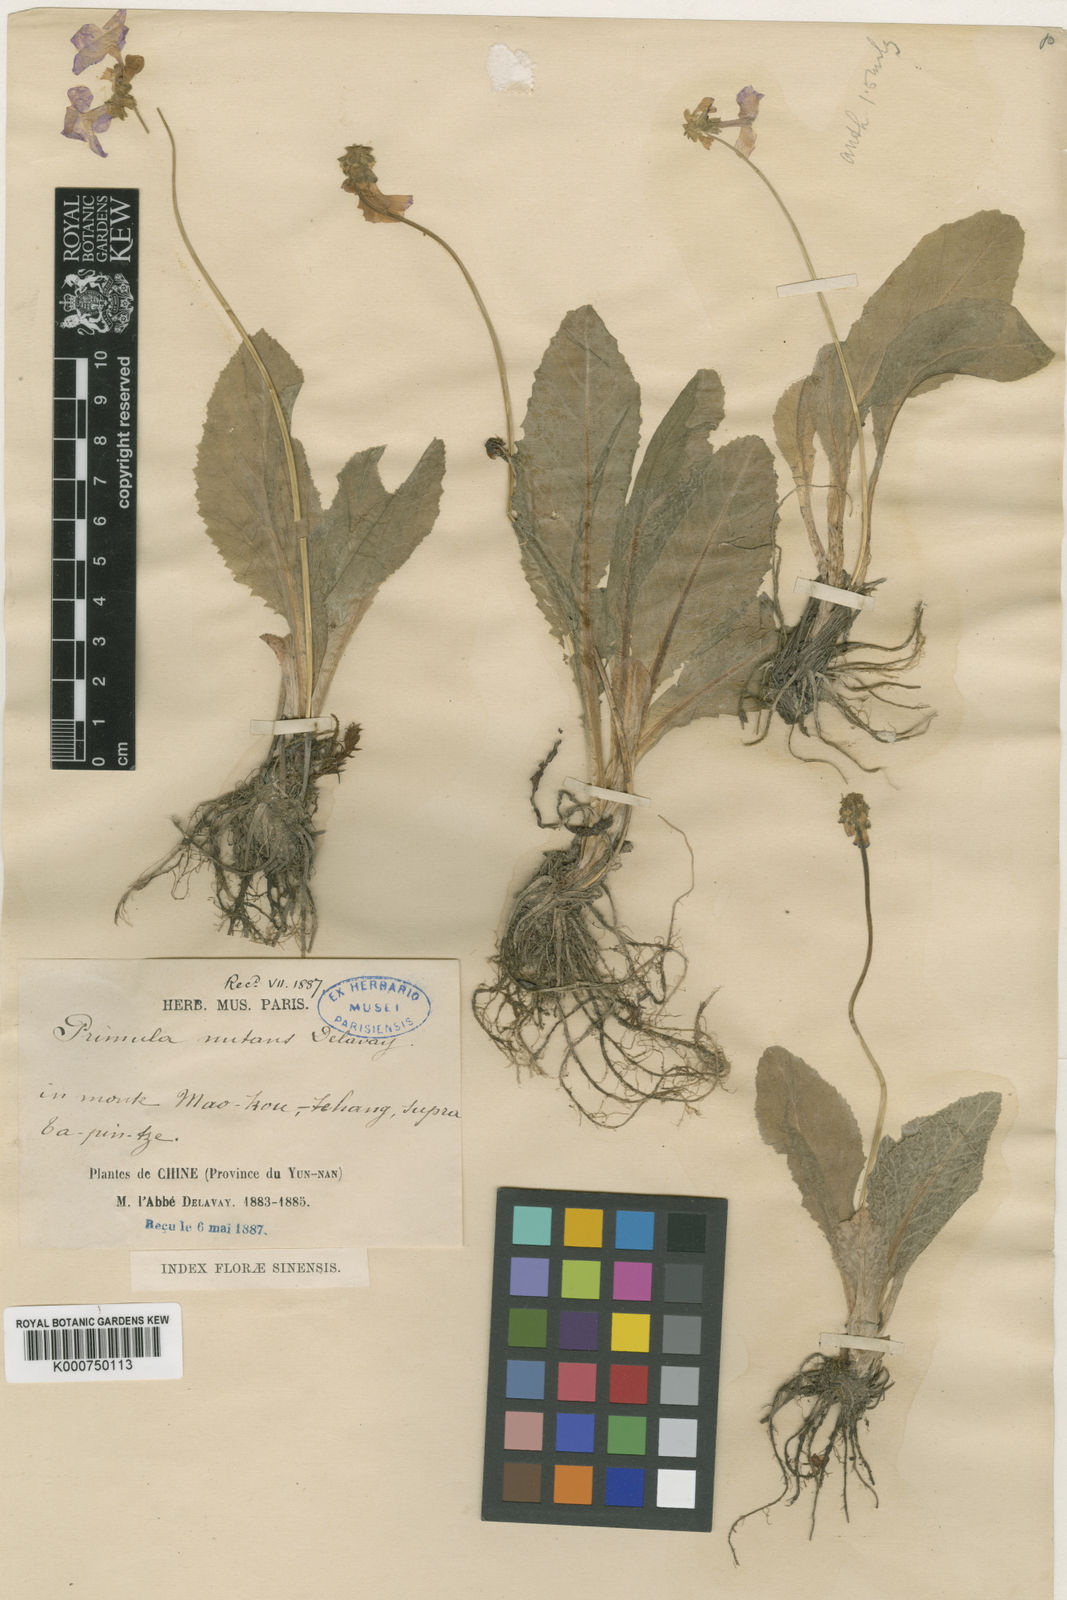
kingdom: Plantae
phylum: Tracheophyta
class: Magnoliopsida
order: Ericales
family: Primulaceae
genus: Primula
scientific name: Primula nutans
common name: Siberian primrose
